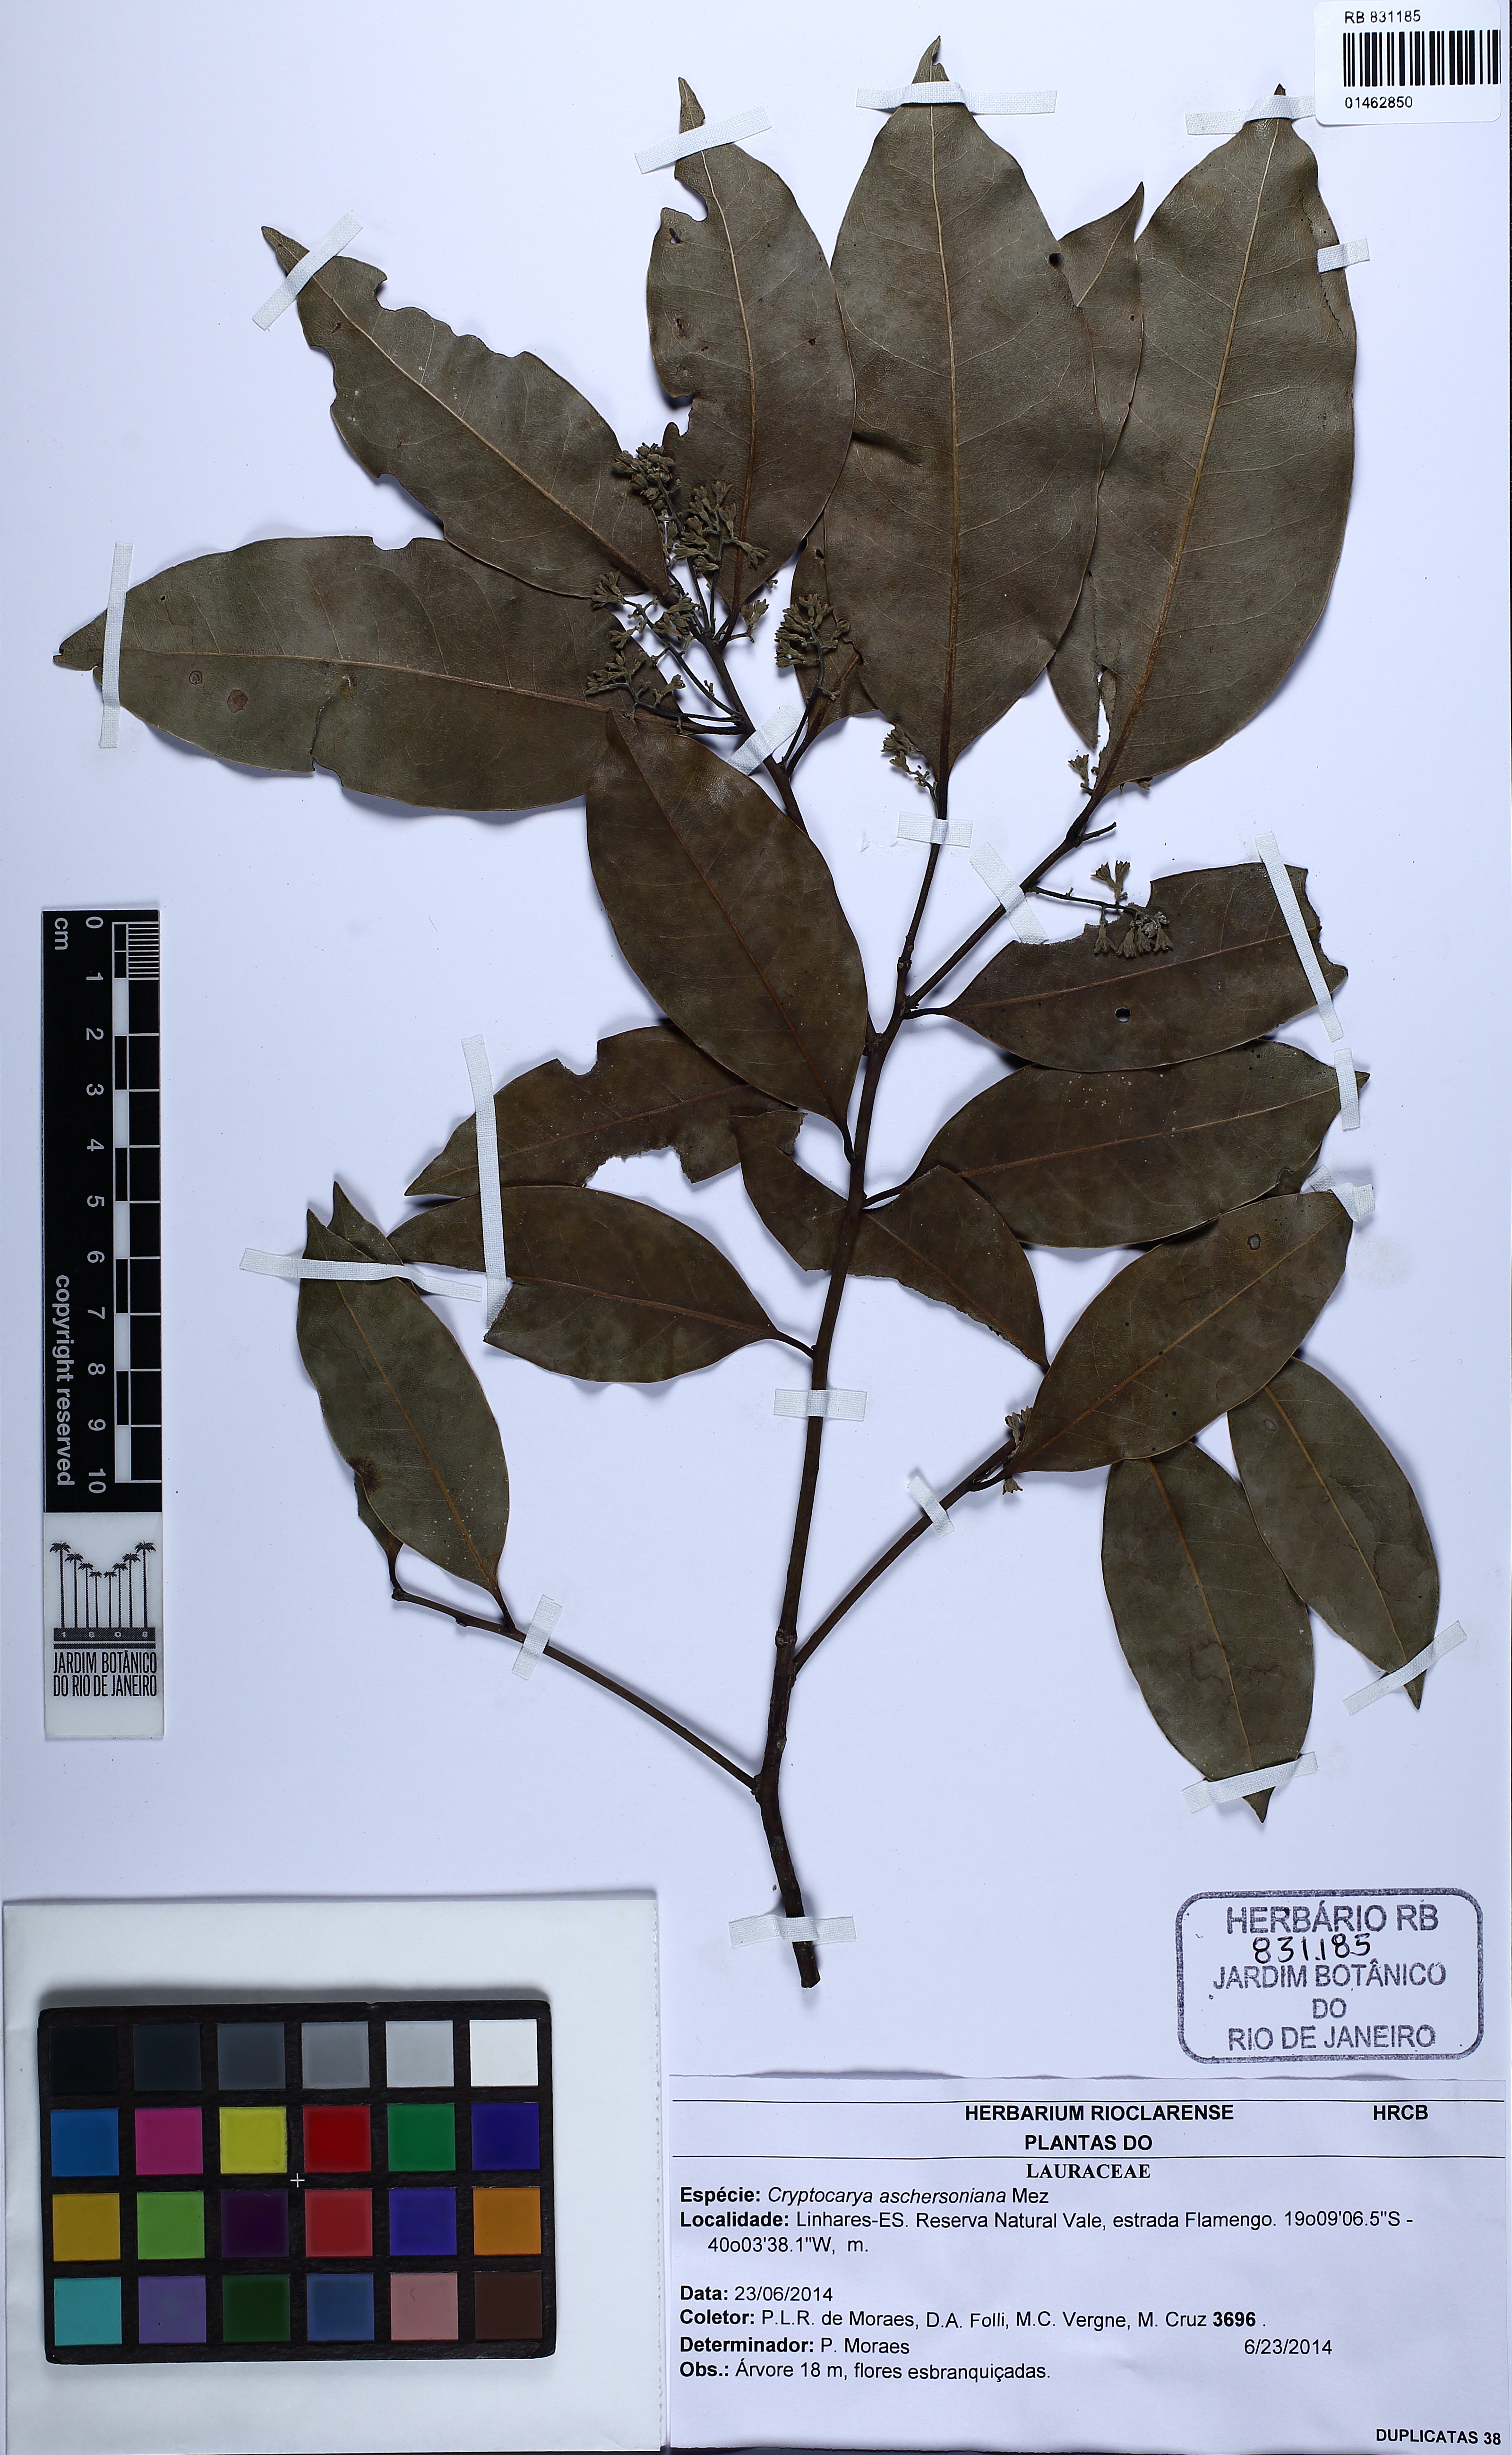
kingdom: Plantae
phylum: Tracheophyta
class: Magnoliopsida
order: Laurales
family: Lauraceae
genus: Cryptocarya
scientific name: Cryptocarya aschersoniana
